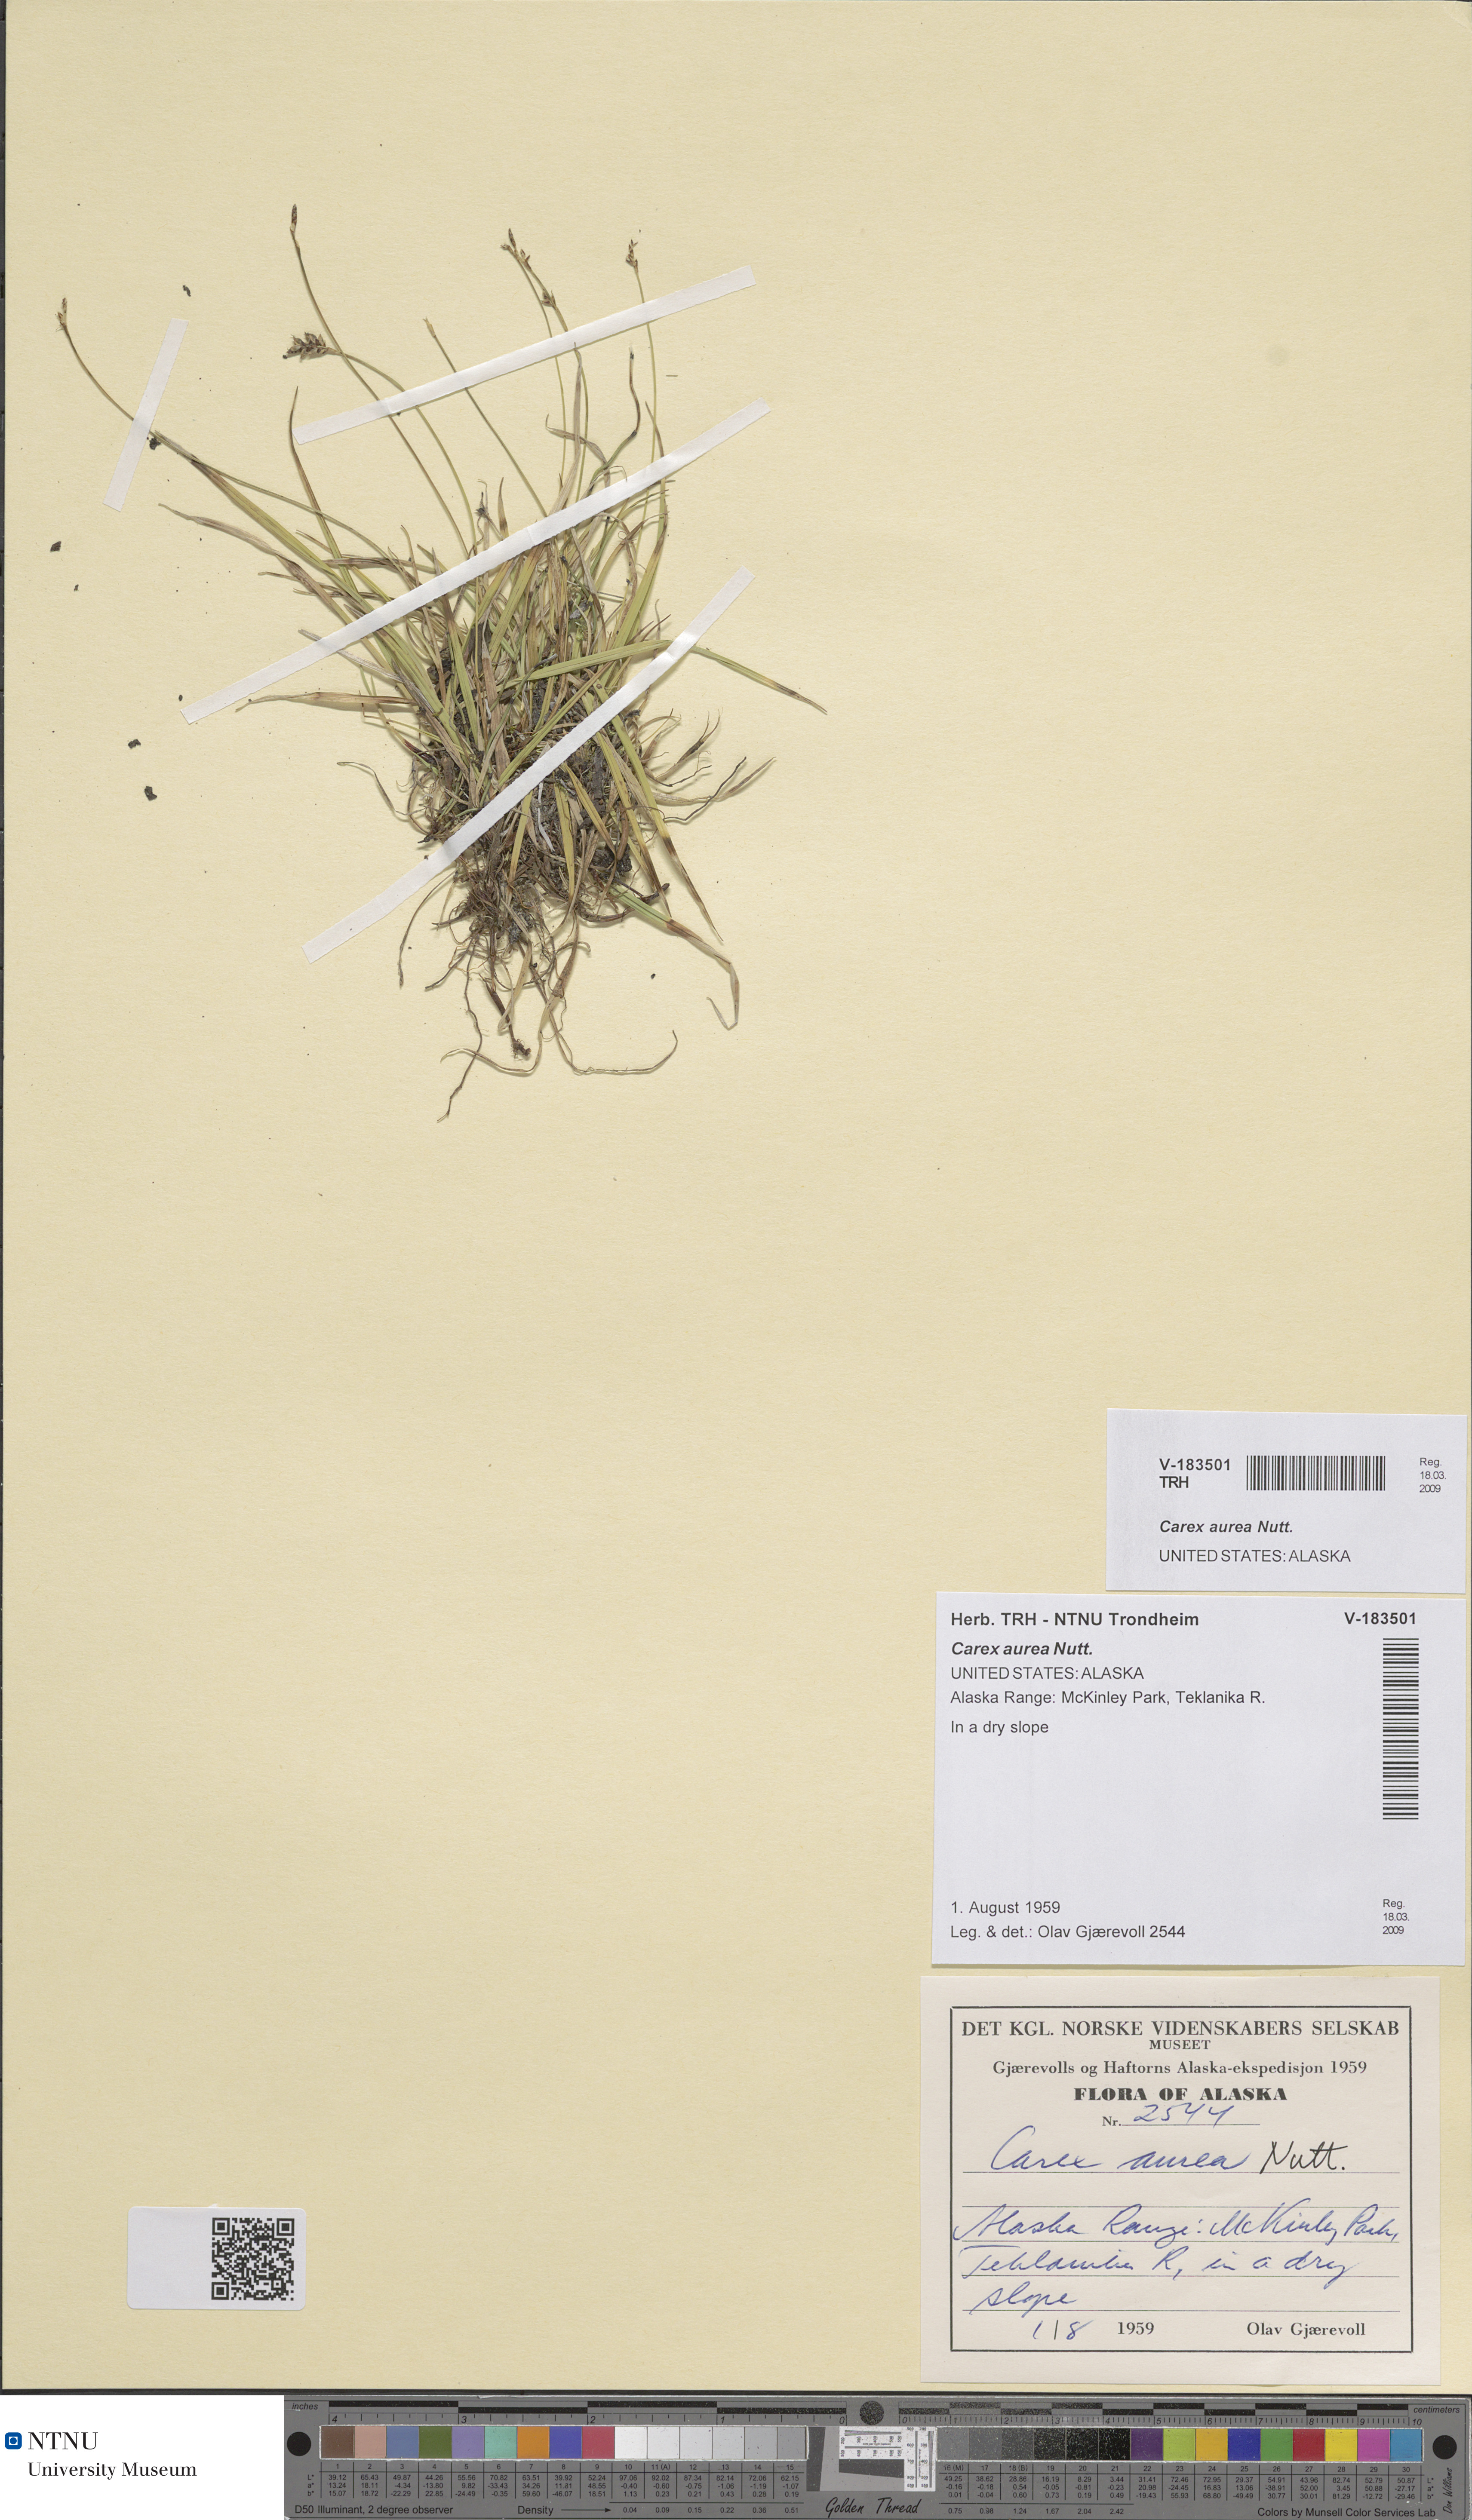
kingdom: Plantae
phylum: Tracheophyta
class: Liliopsida
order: Poales
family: Cyperaceae
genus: Carex
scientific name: Carex aurea
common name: Golden sedge
